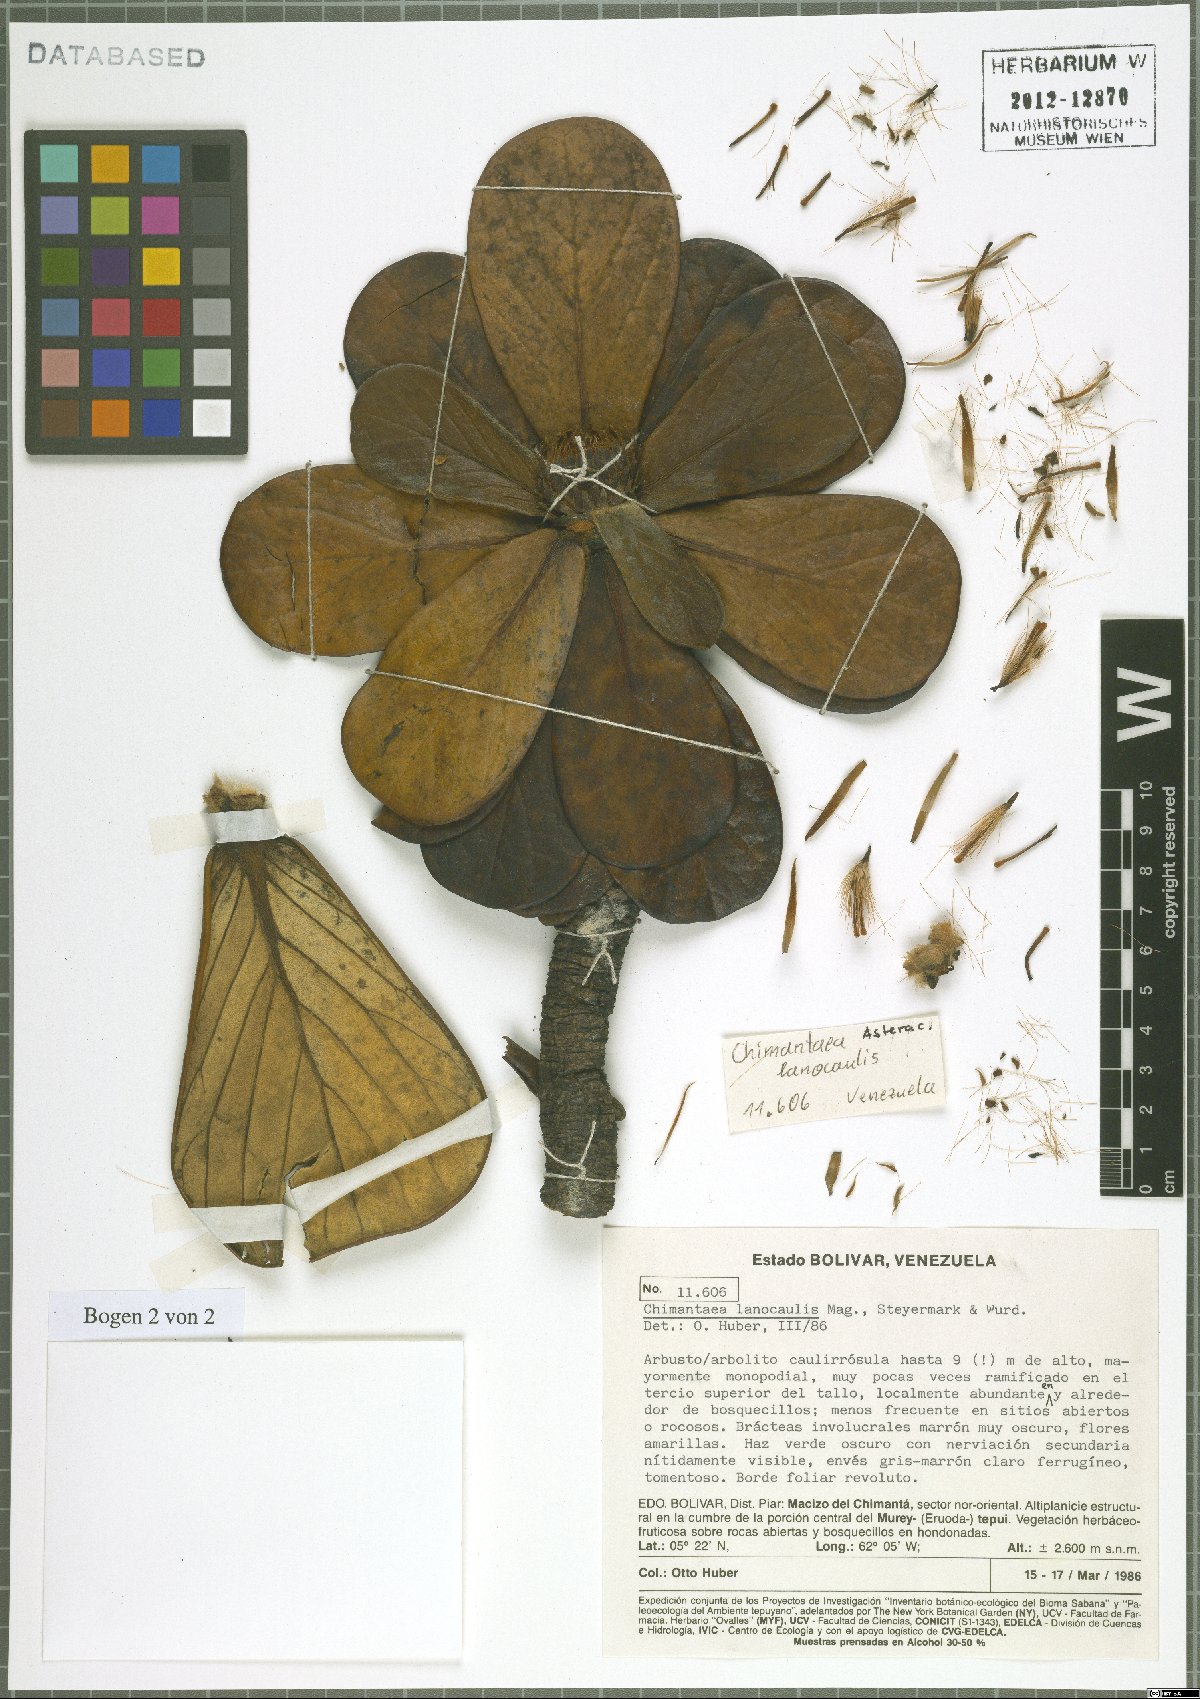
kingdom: Plantae
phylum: Tracheophyta
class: Magnoliopsida
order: Asterales
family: Asteraceae
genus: Chimantaea
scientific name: Chimantaea lanocaulis
